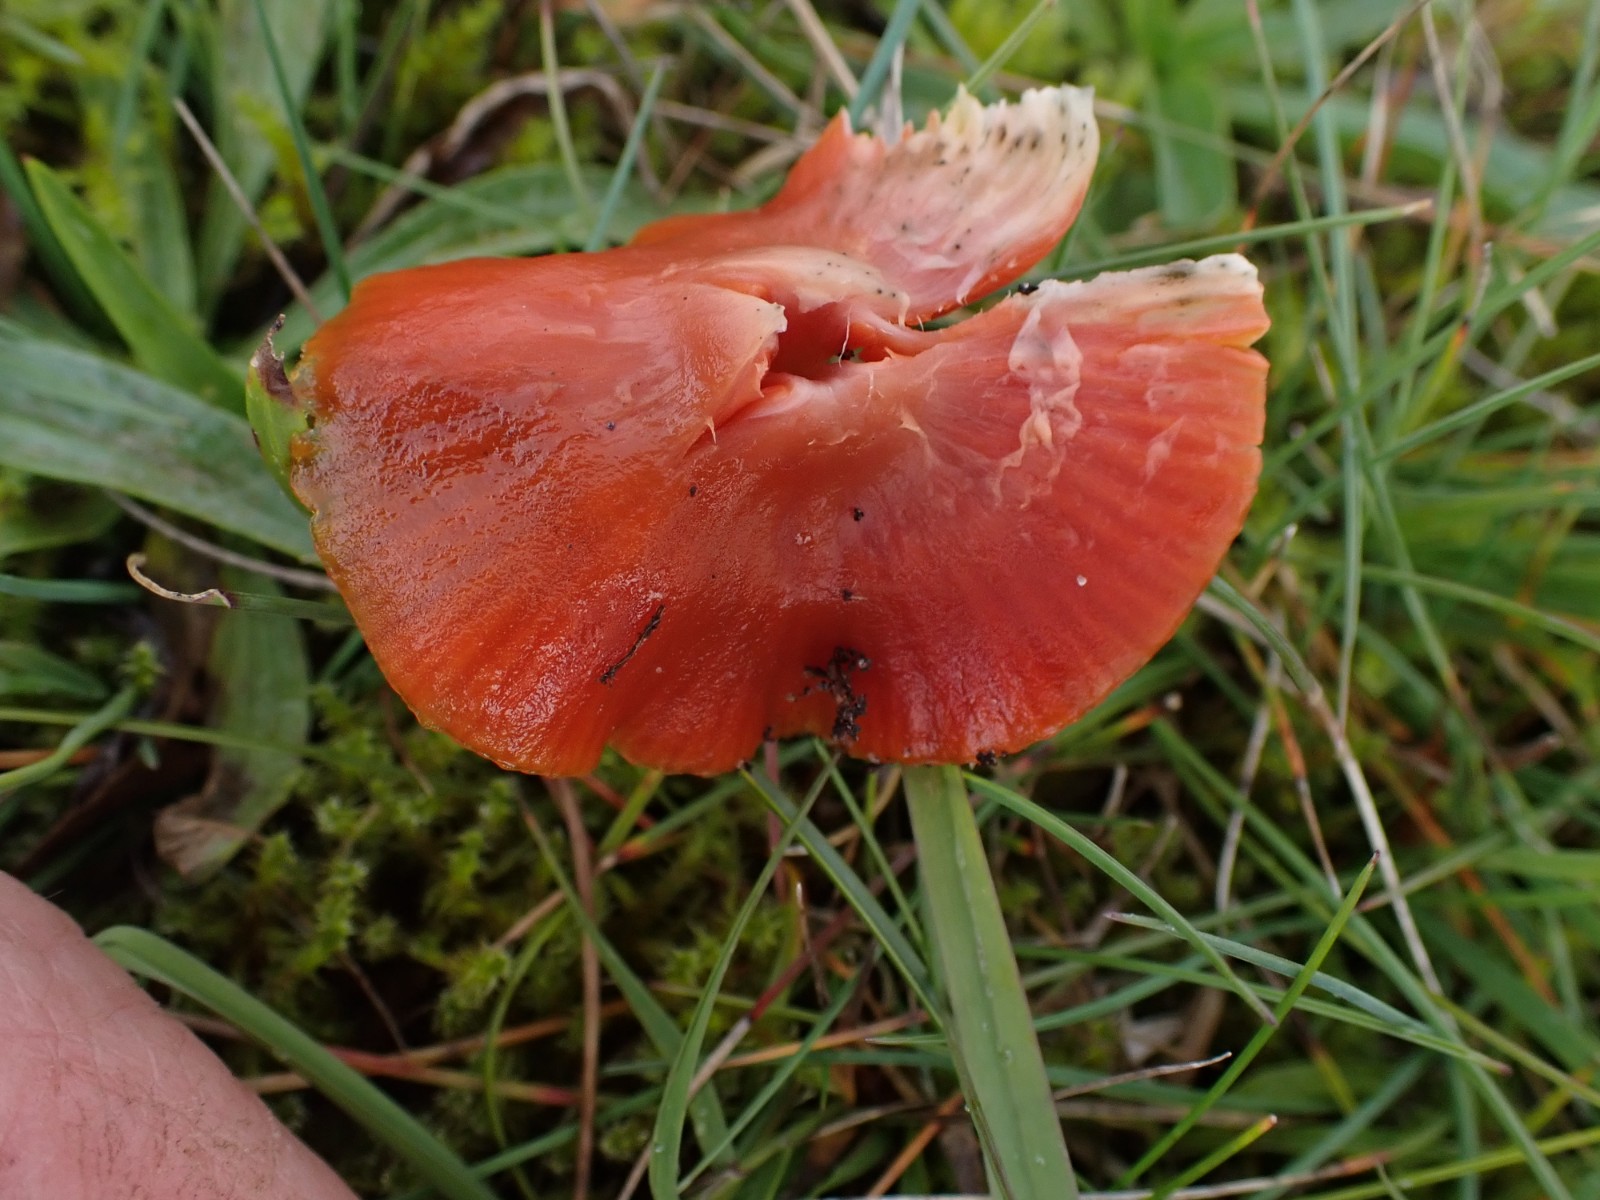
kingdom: Fungi
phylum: Basidiomycota
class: Agaricomycetes
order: Agaricales
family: Hygrophoraceae
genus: Gliophorus
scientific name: Gliophorus europerplexus
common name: Butterscotch waxcap
